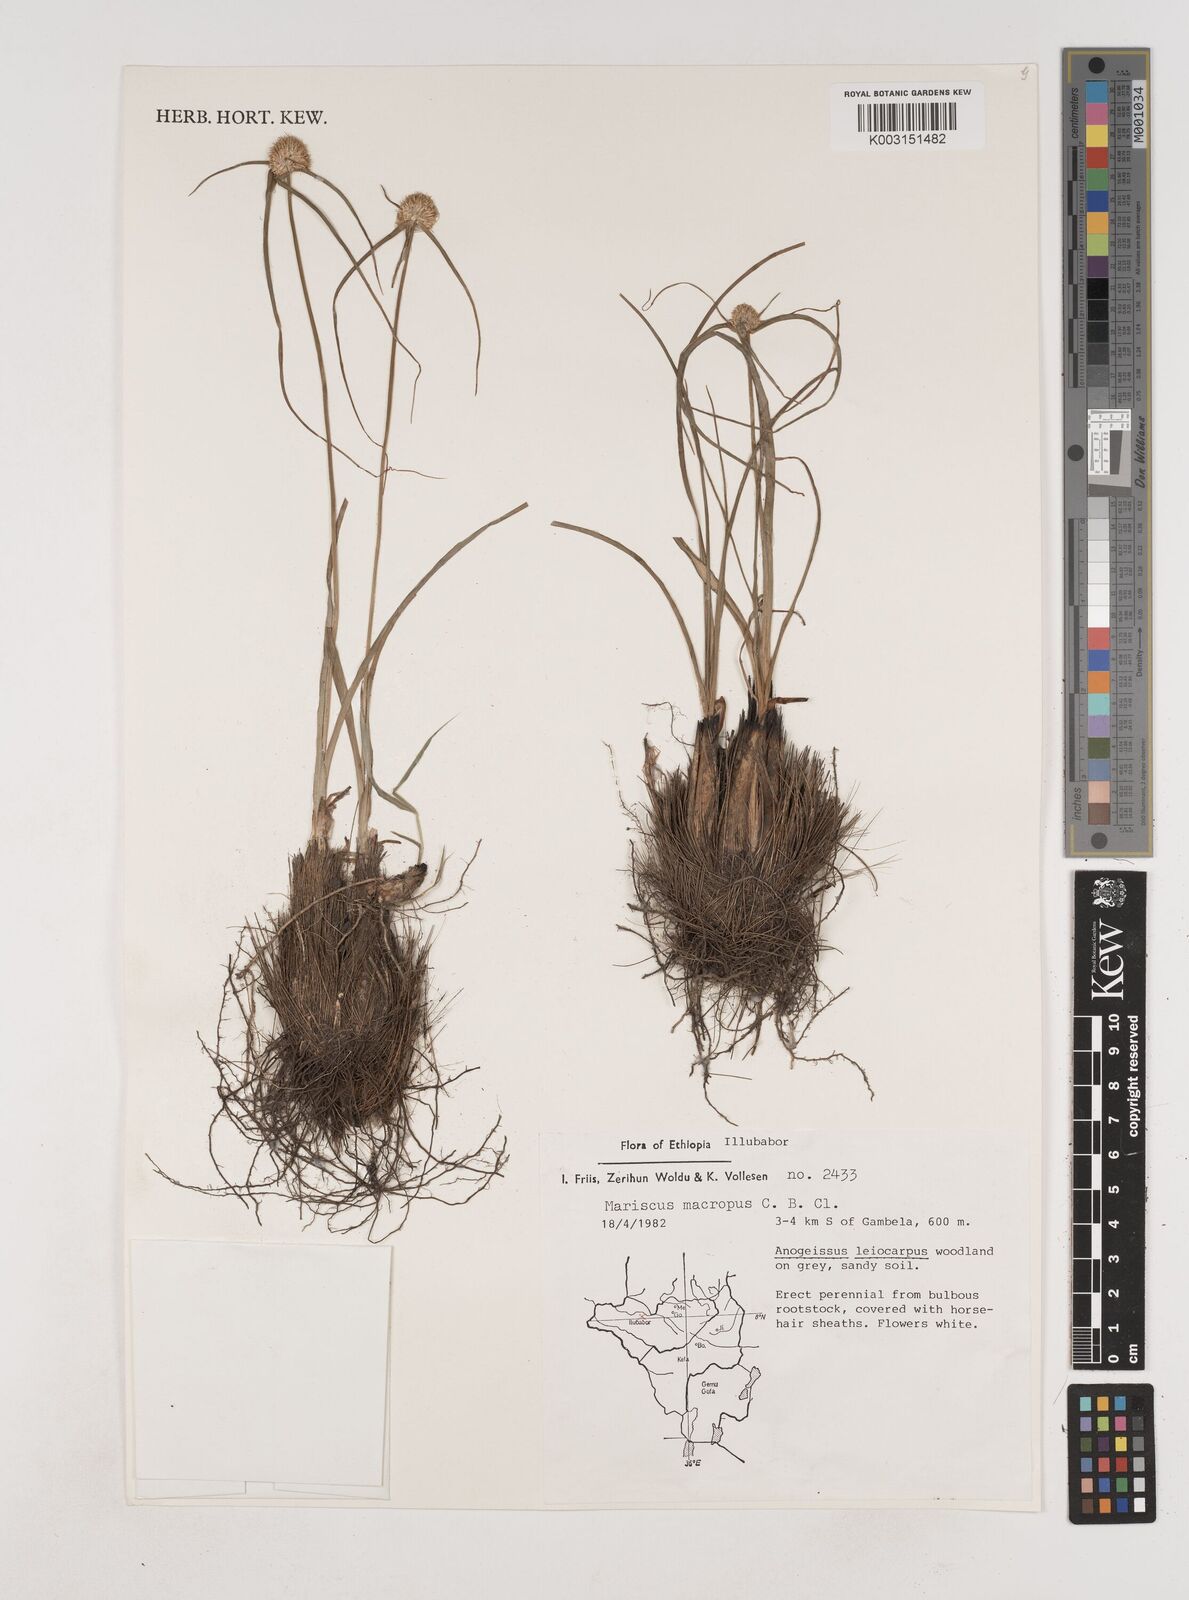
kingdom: Plantae
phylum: Tracheophyta
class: Liliopsida
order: Poales
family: Cyperaceae
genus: Cyperus
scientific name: Cyperus mollipes
